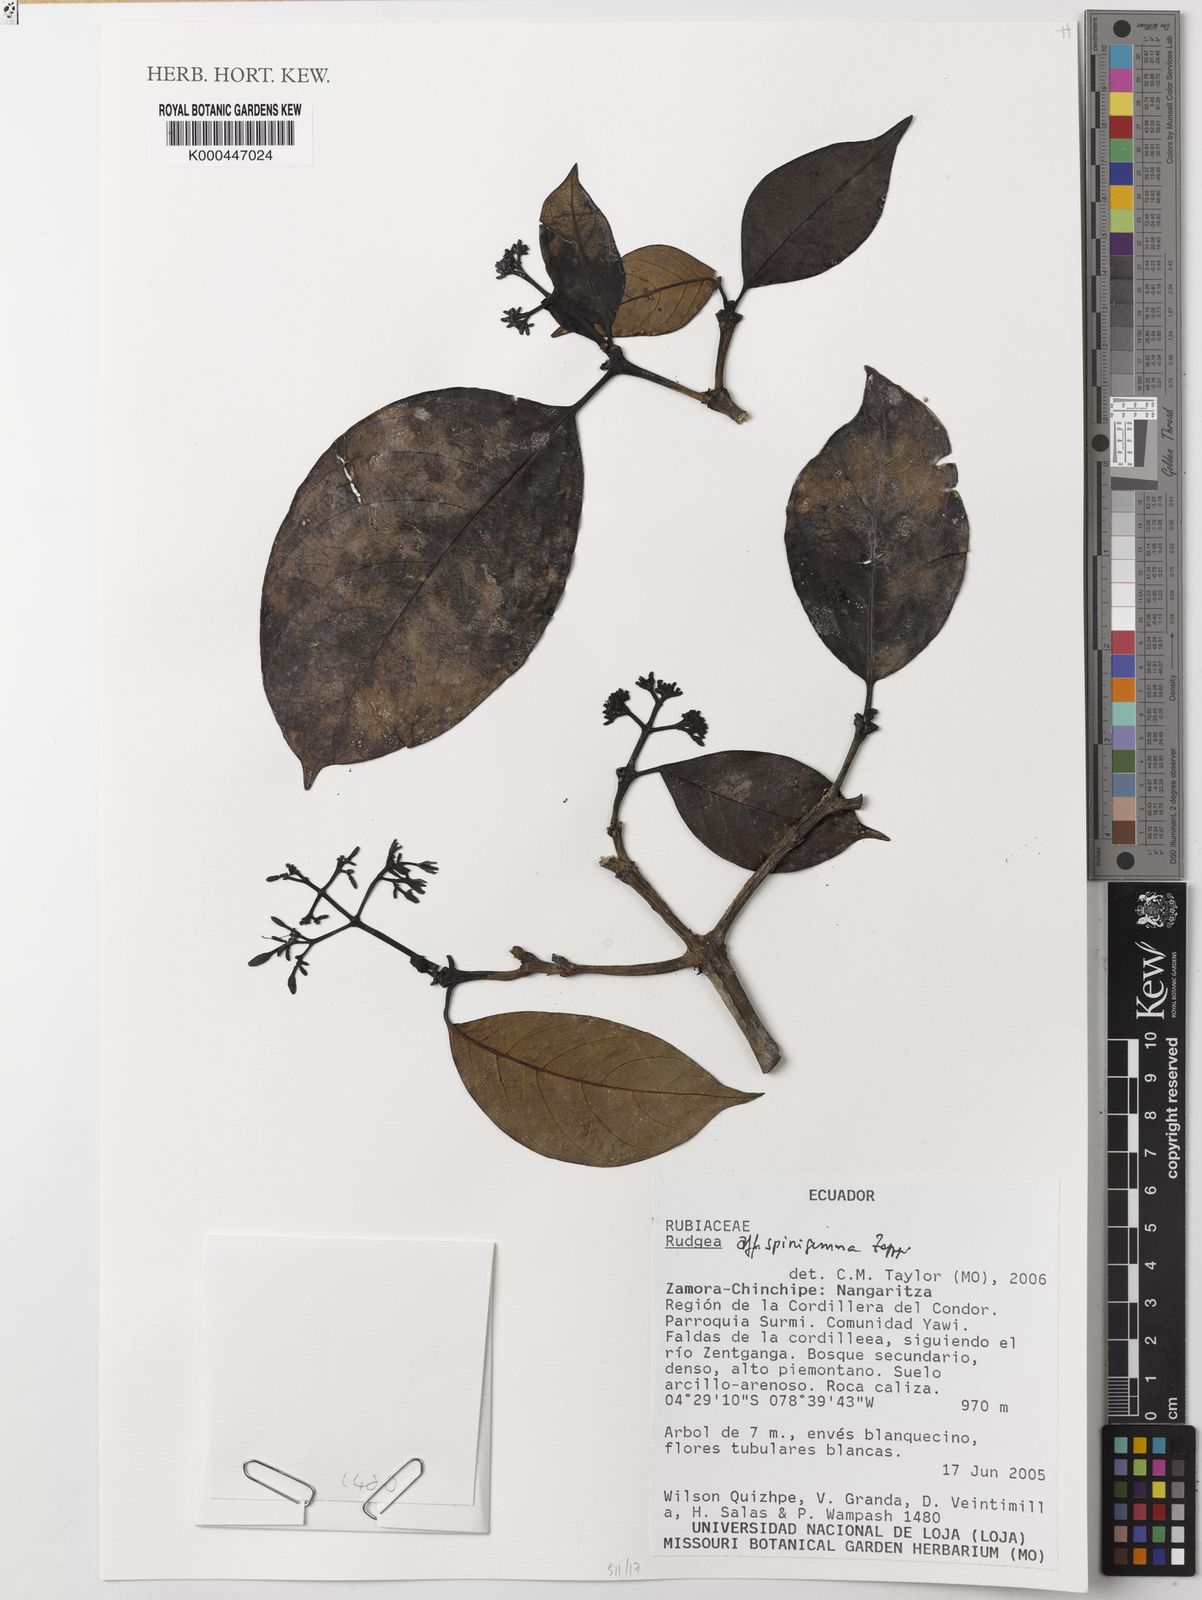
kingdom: Plantae
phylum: Tracheophyta
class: Magnoliopsida
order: Gentianales
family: Rubiaceae
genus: Rudgea
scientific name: Rudgea spinigemma
